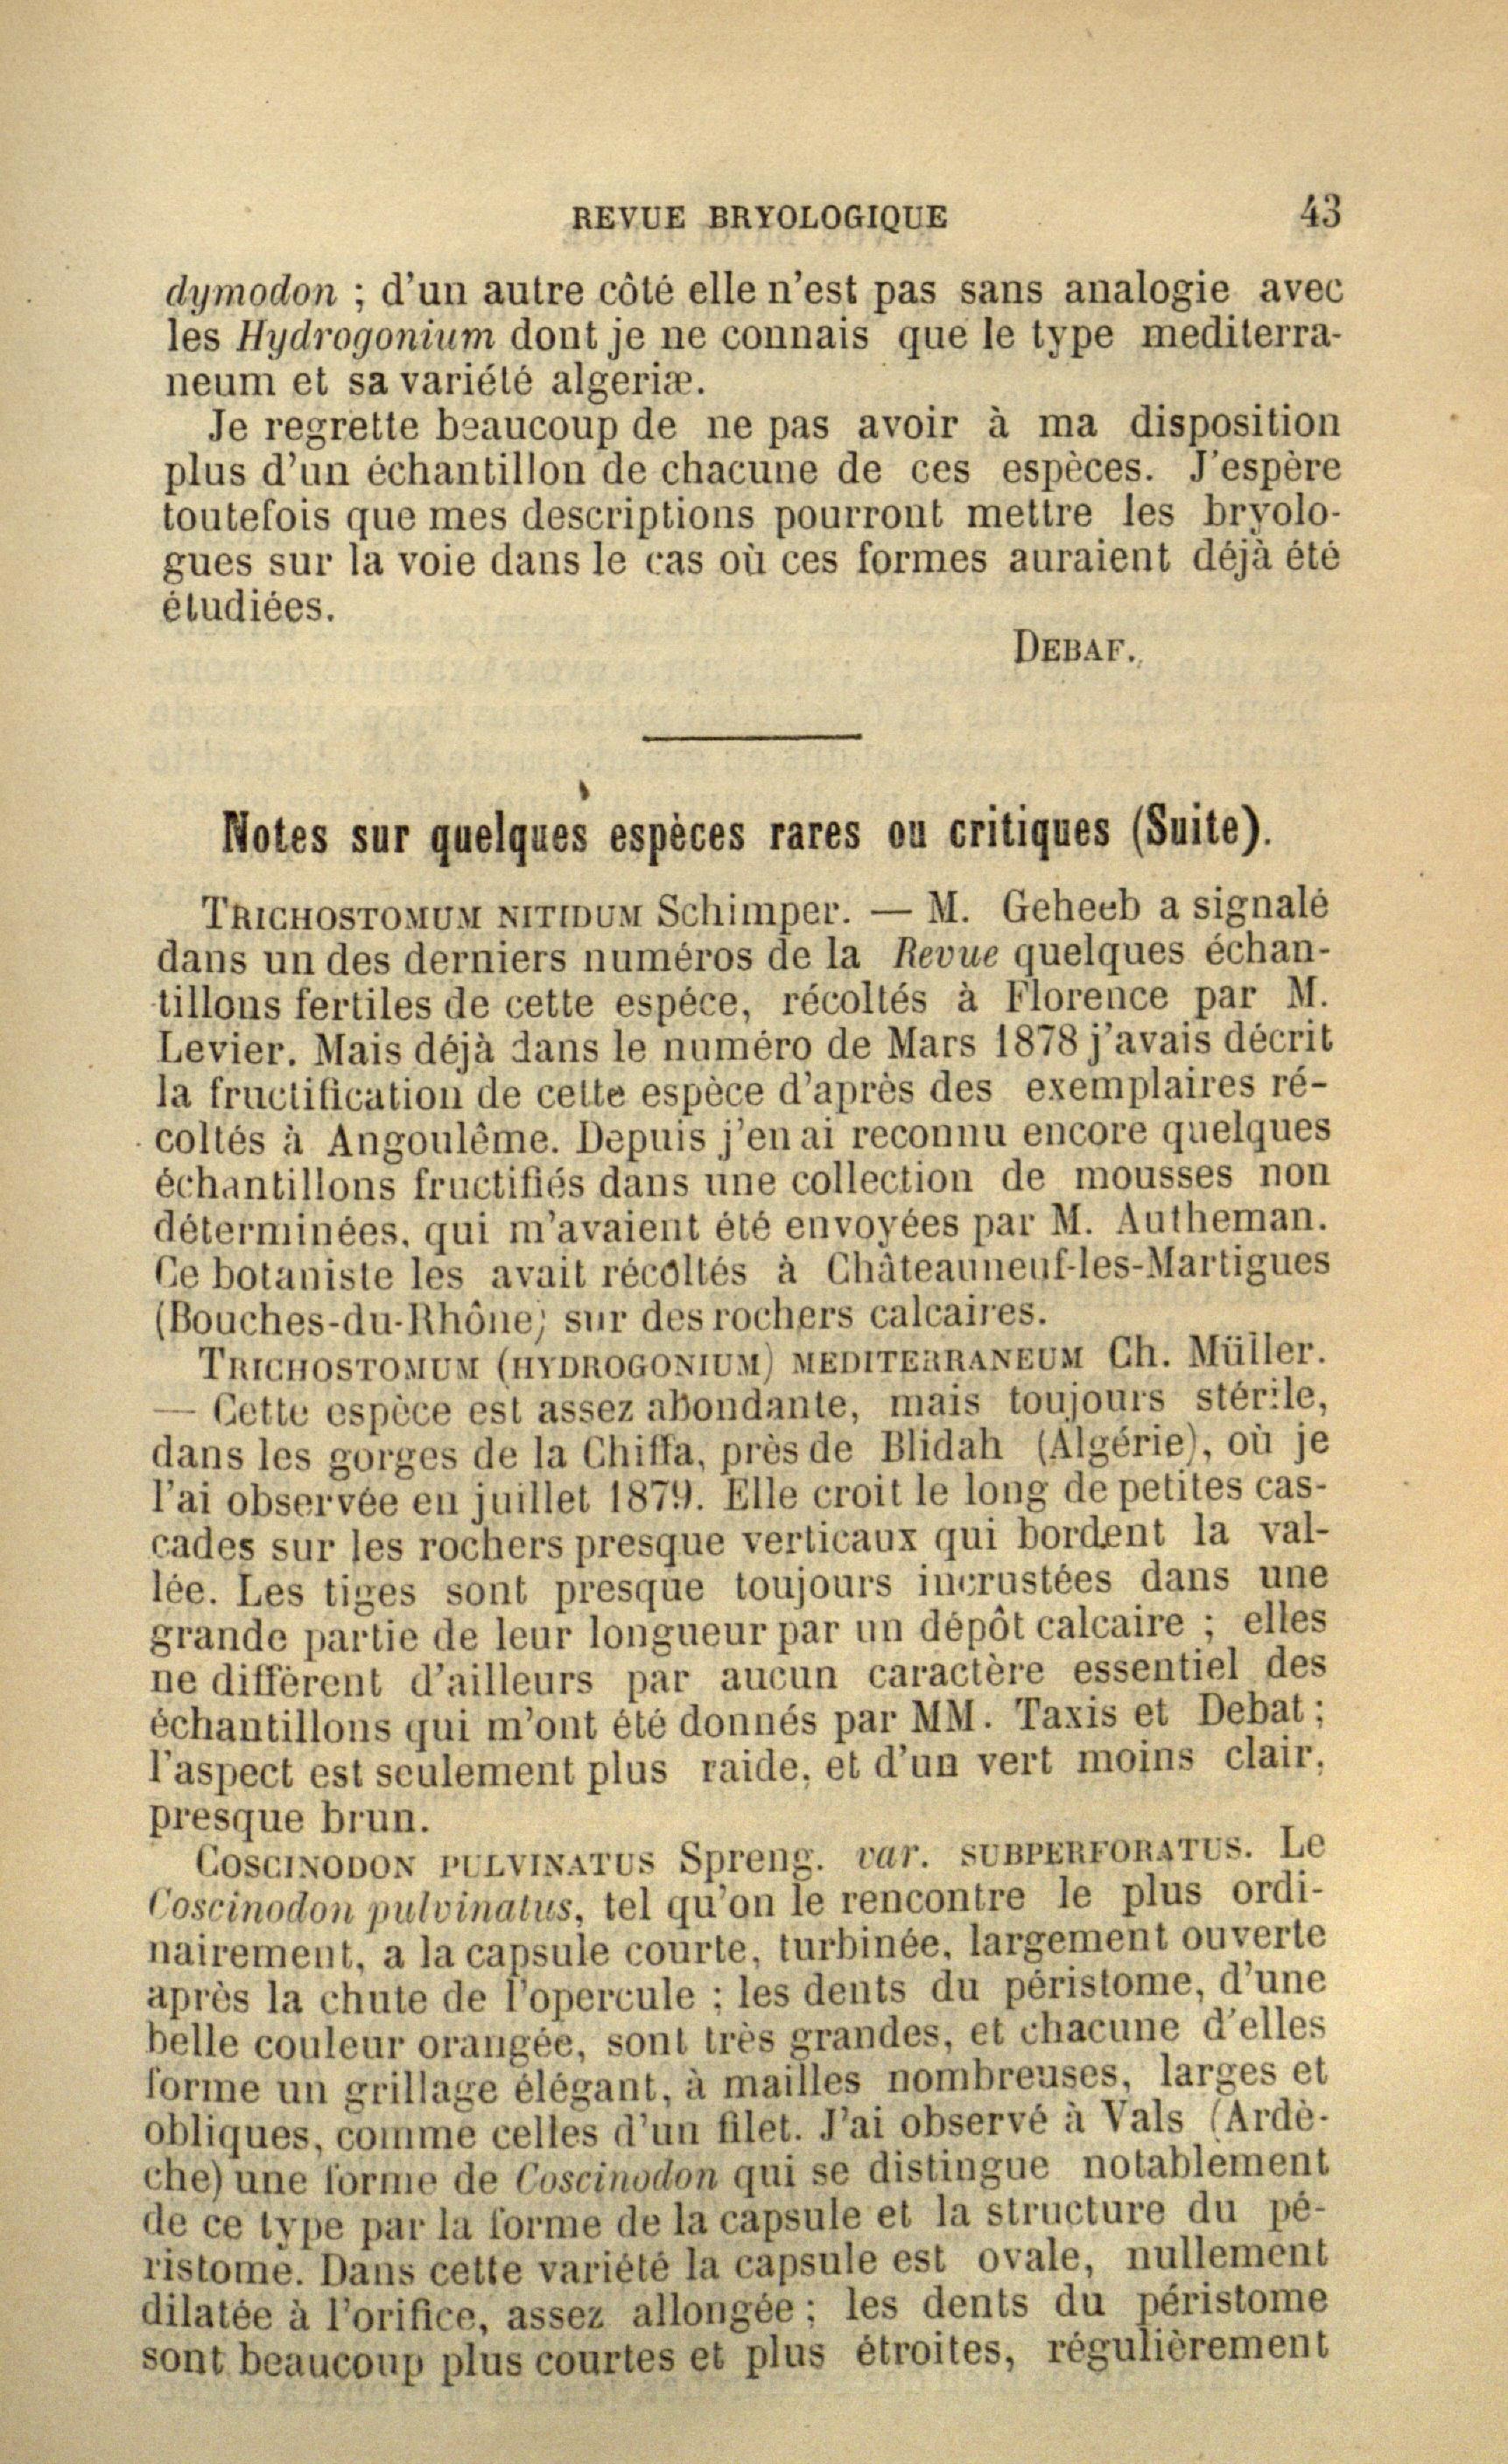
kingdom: Plantae
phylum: Bryophyta
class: Bryopsida
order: Grimmiales
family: Grimmiaceae
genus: Coscinodon
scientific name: Coscinodon cribrosus
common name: Sieve-tooth moss
